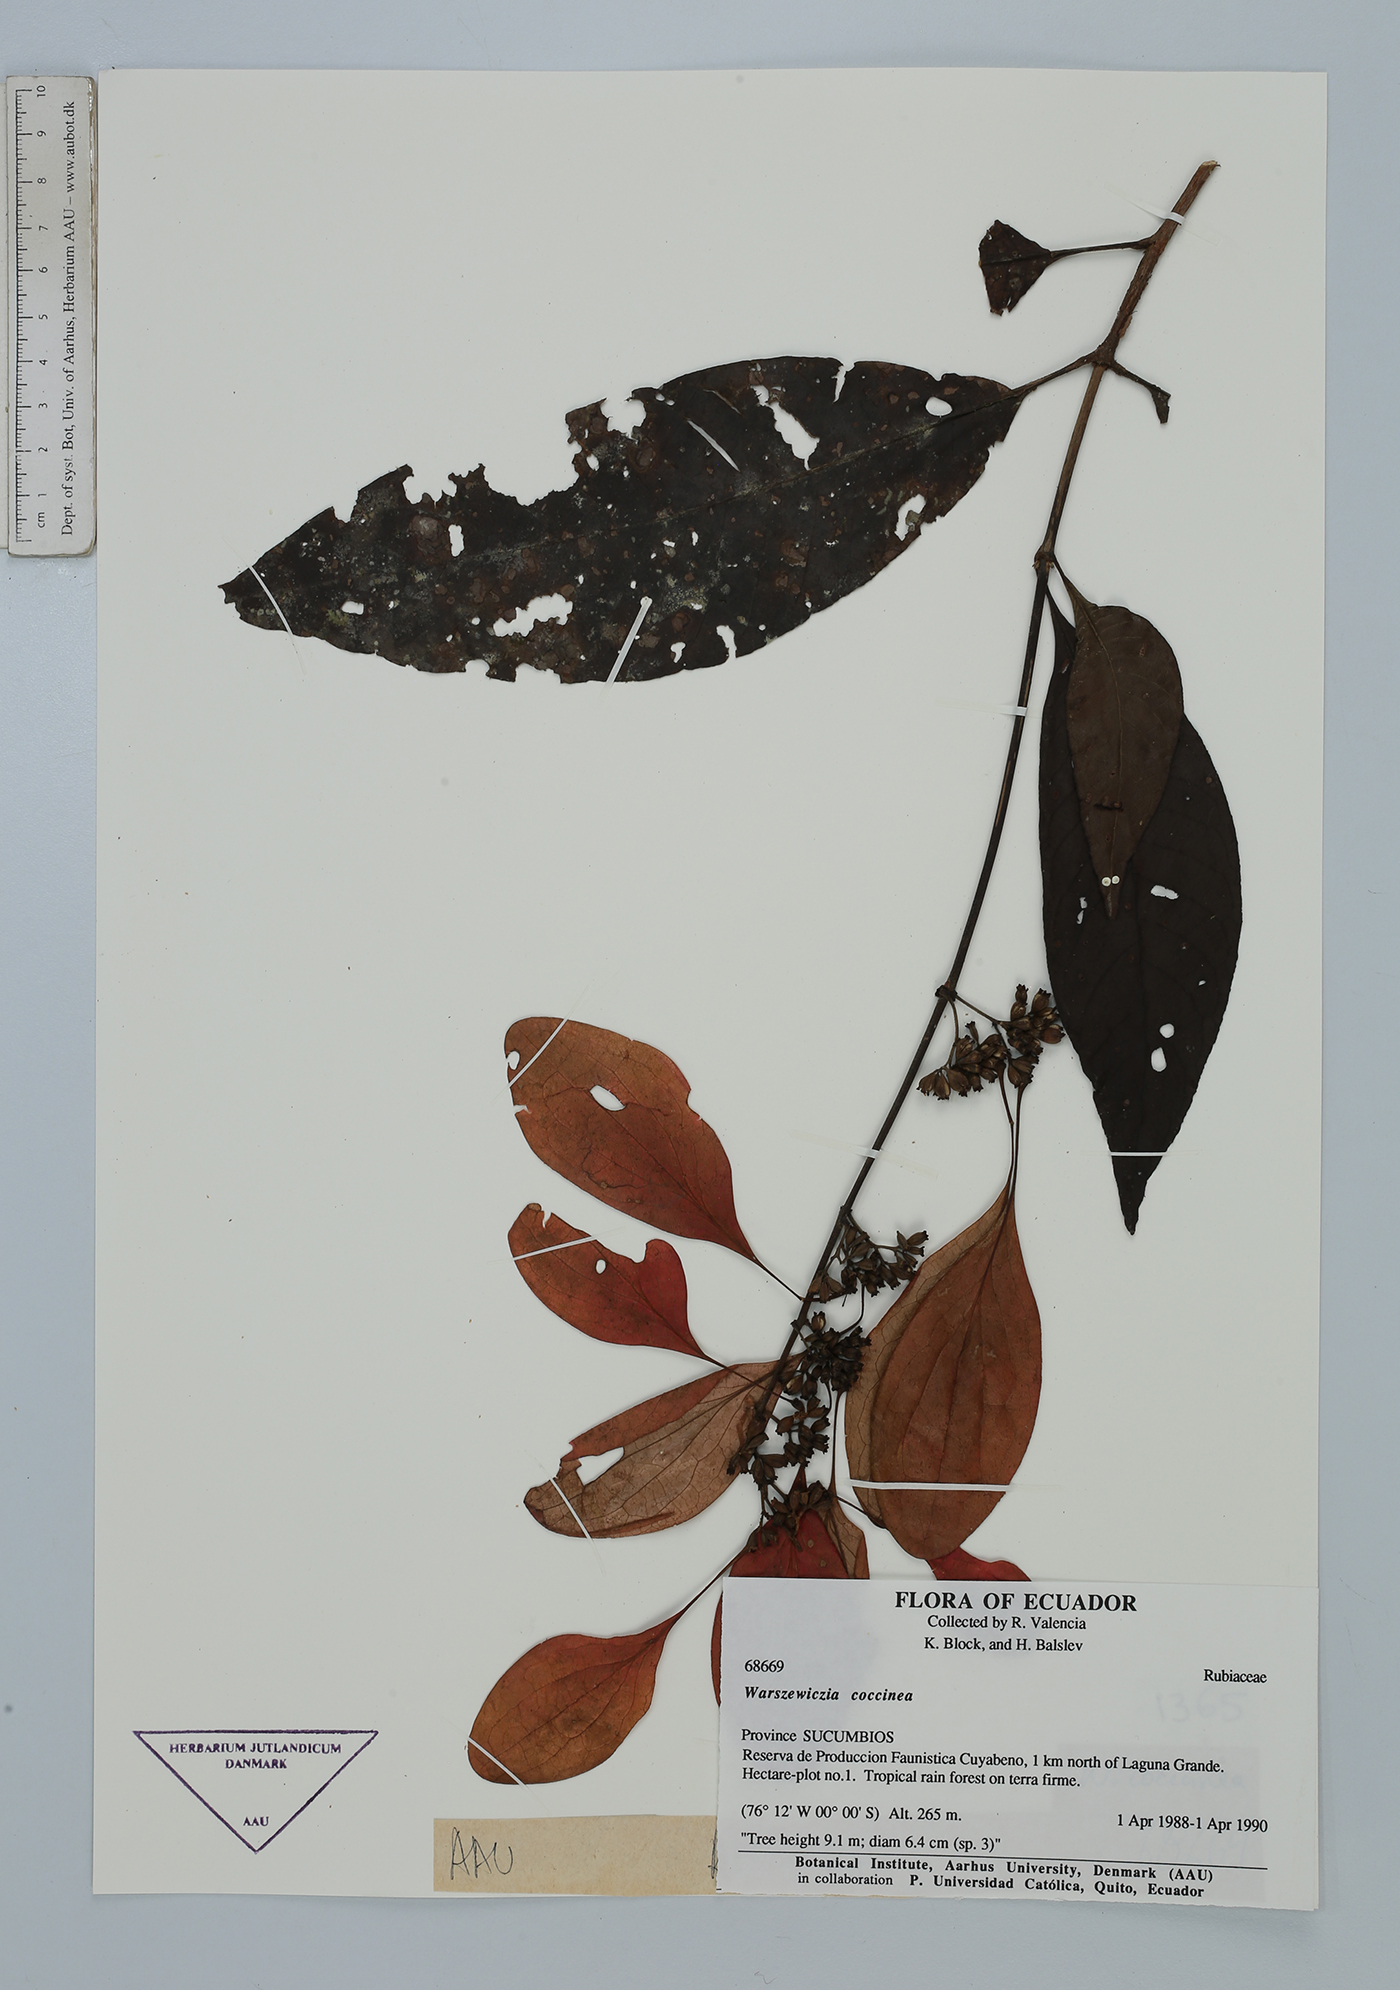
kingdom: Plantae
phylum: Tracheophyta
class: Magnoliopsida
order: Gentianales
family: Rubiaceae
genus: Warszewiczia
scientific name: Warszewiczia coccinea
